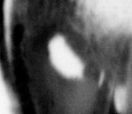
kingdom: Animalia
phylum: Chordata
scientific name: Chordata
